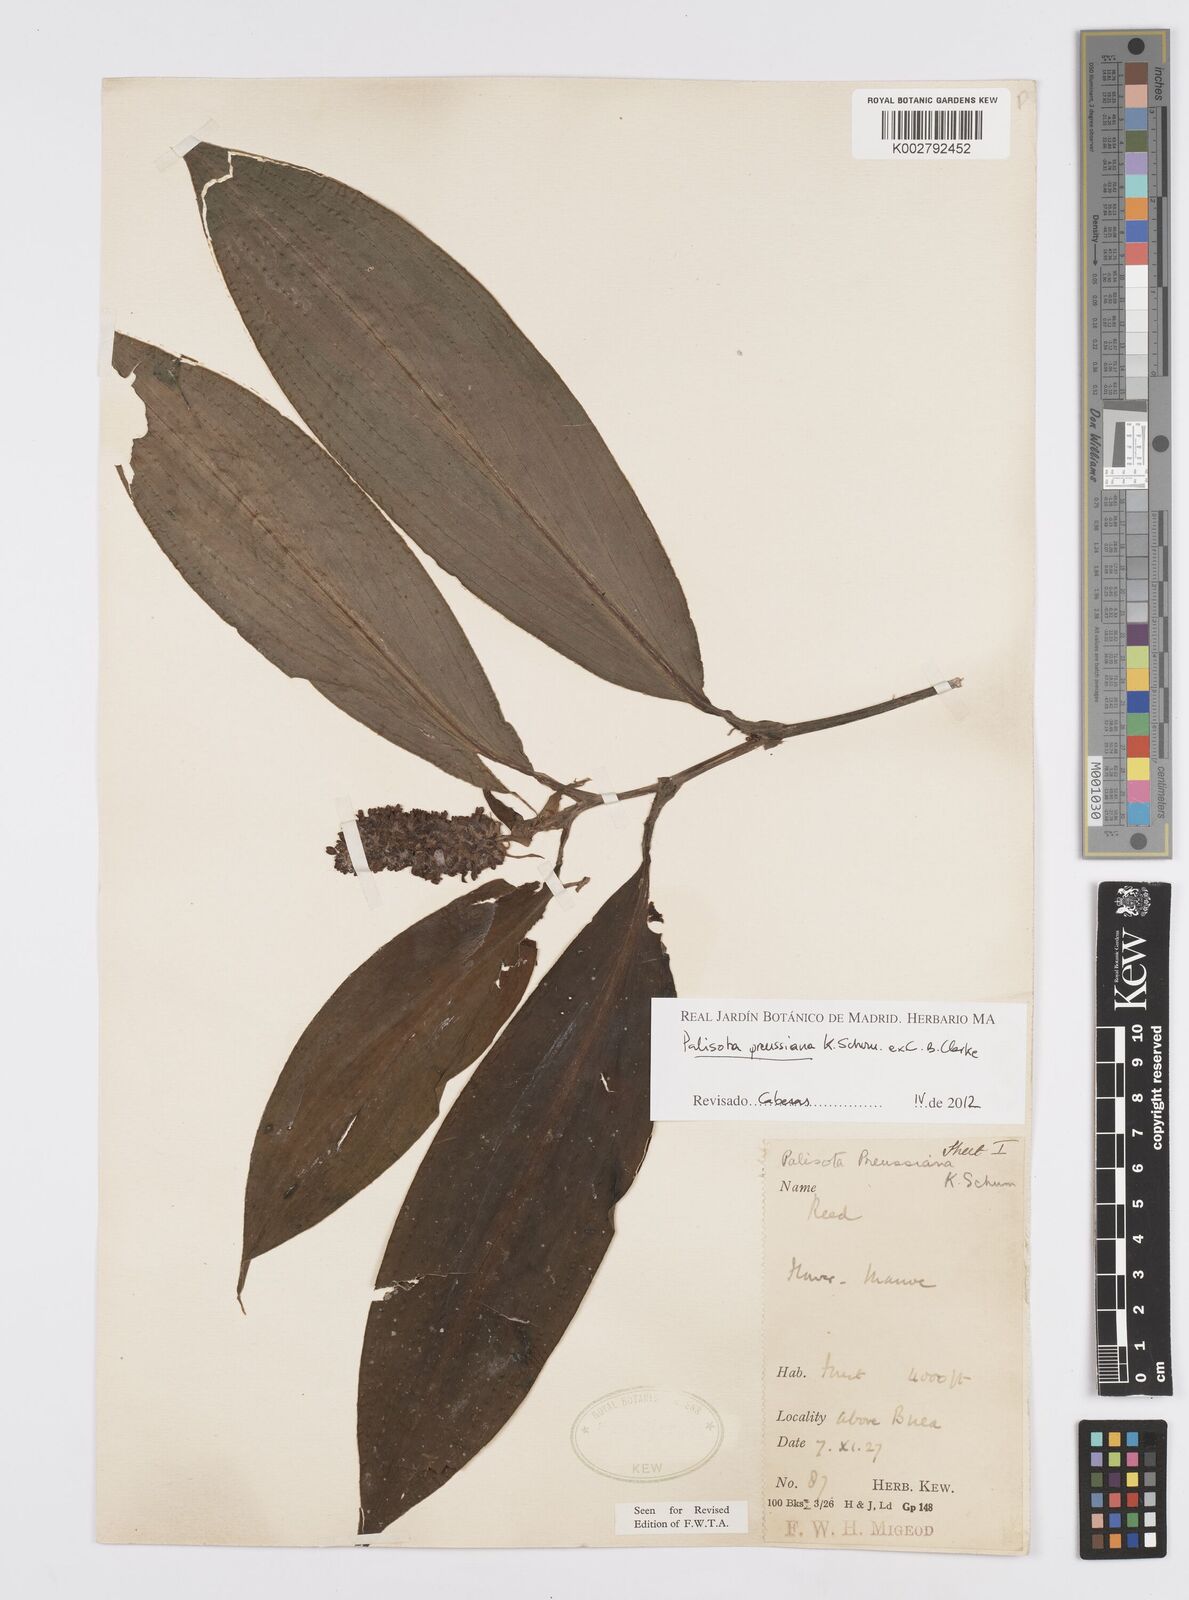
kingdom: Plantae
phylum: Tracheophyta
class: Liliopsida
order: Commelinales
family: Commelinaceae
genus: Palisota
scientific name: Palisota preussiana
